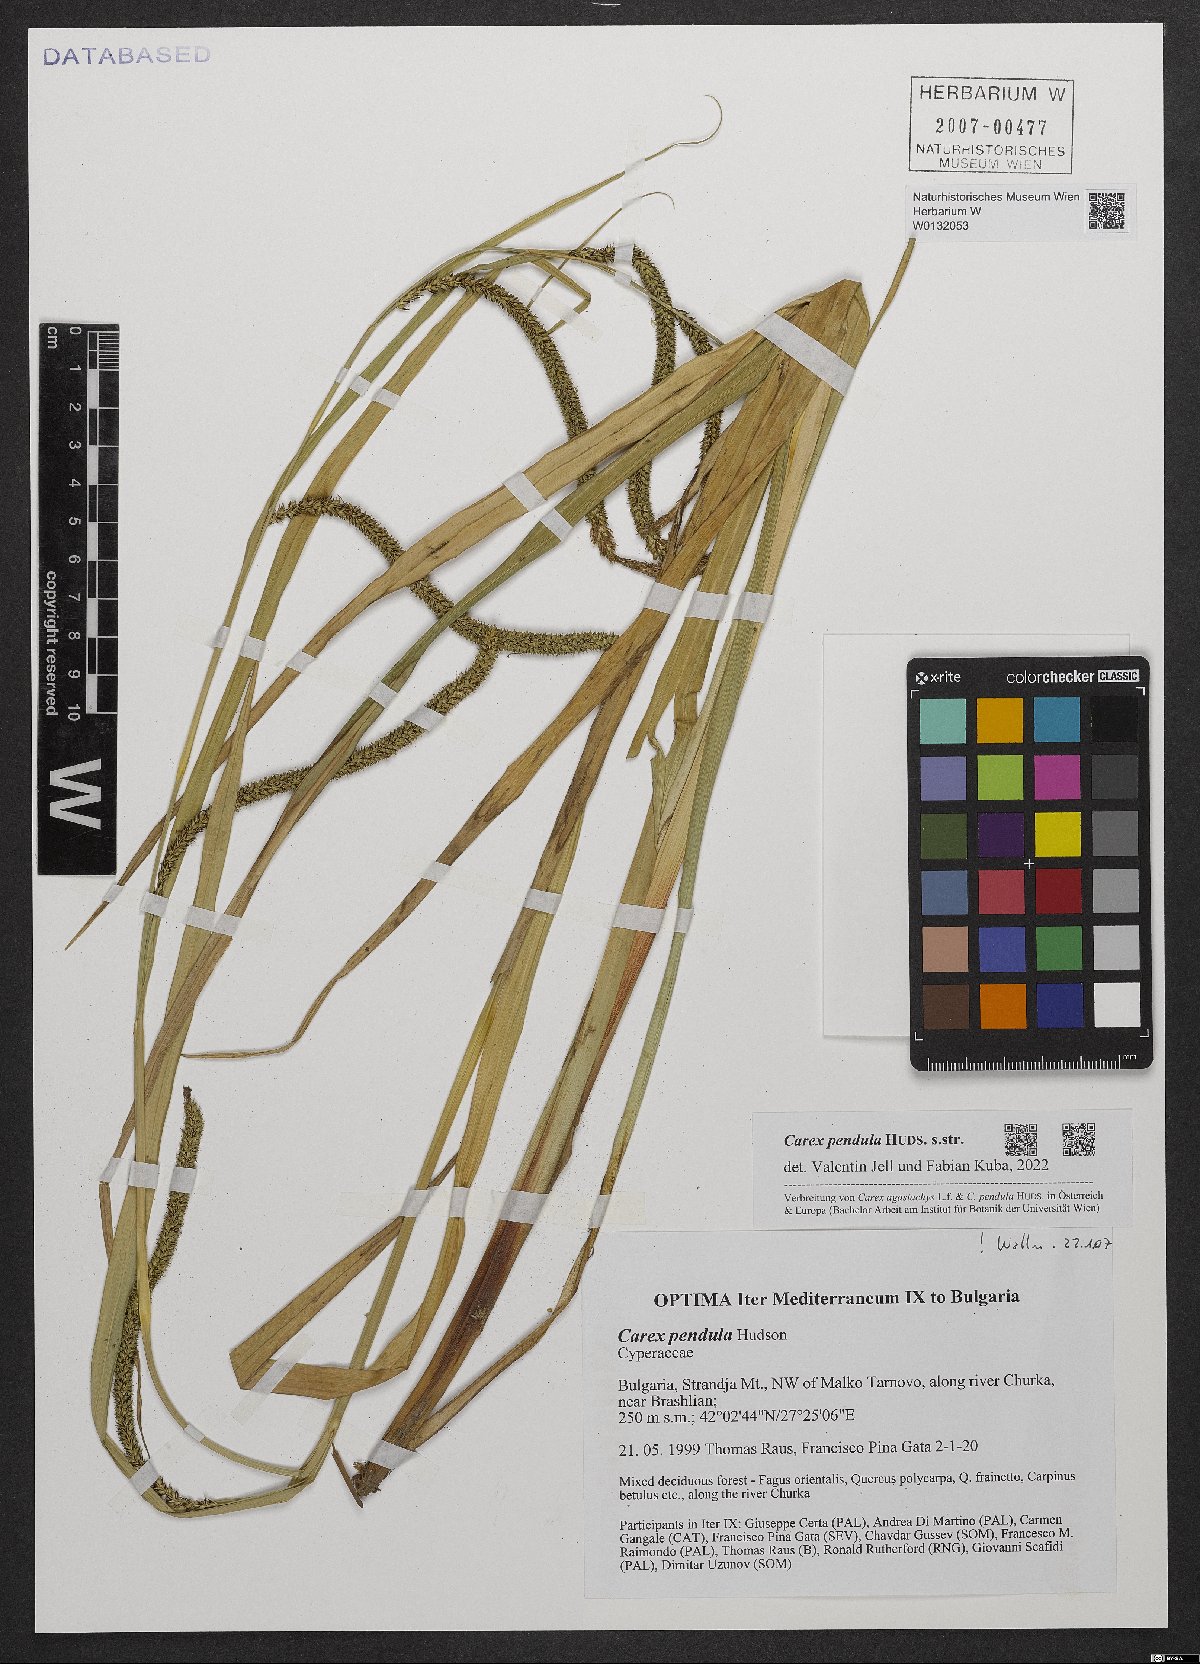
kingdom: Plantae
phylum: Tracheophyta
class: Liliopsida
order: Poales
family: Cyperaceae
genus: Carex
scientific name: Carex pendula
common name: Pendulous sedge
